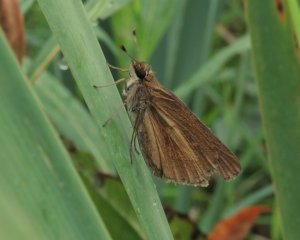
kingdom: Animalia
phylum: Arthropoda
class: Insecta
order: Lepidoptera
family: Hesperiidae
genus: Euphyes
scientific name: Euphyes dion
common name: Dion Skipper
